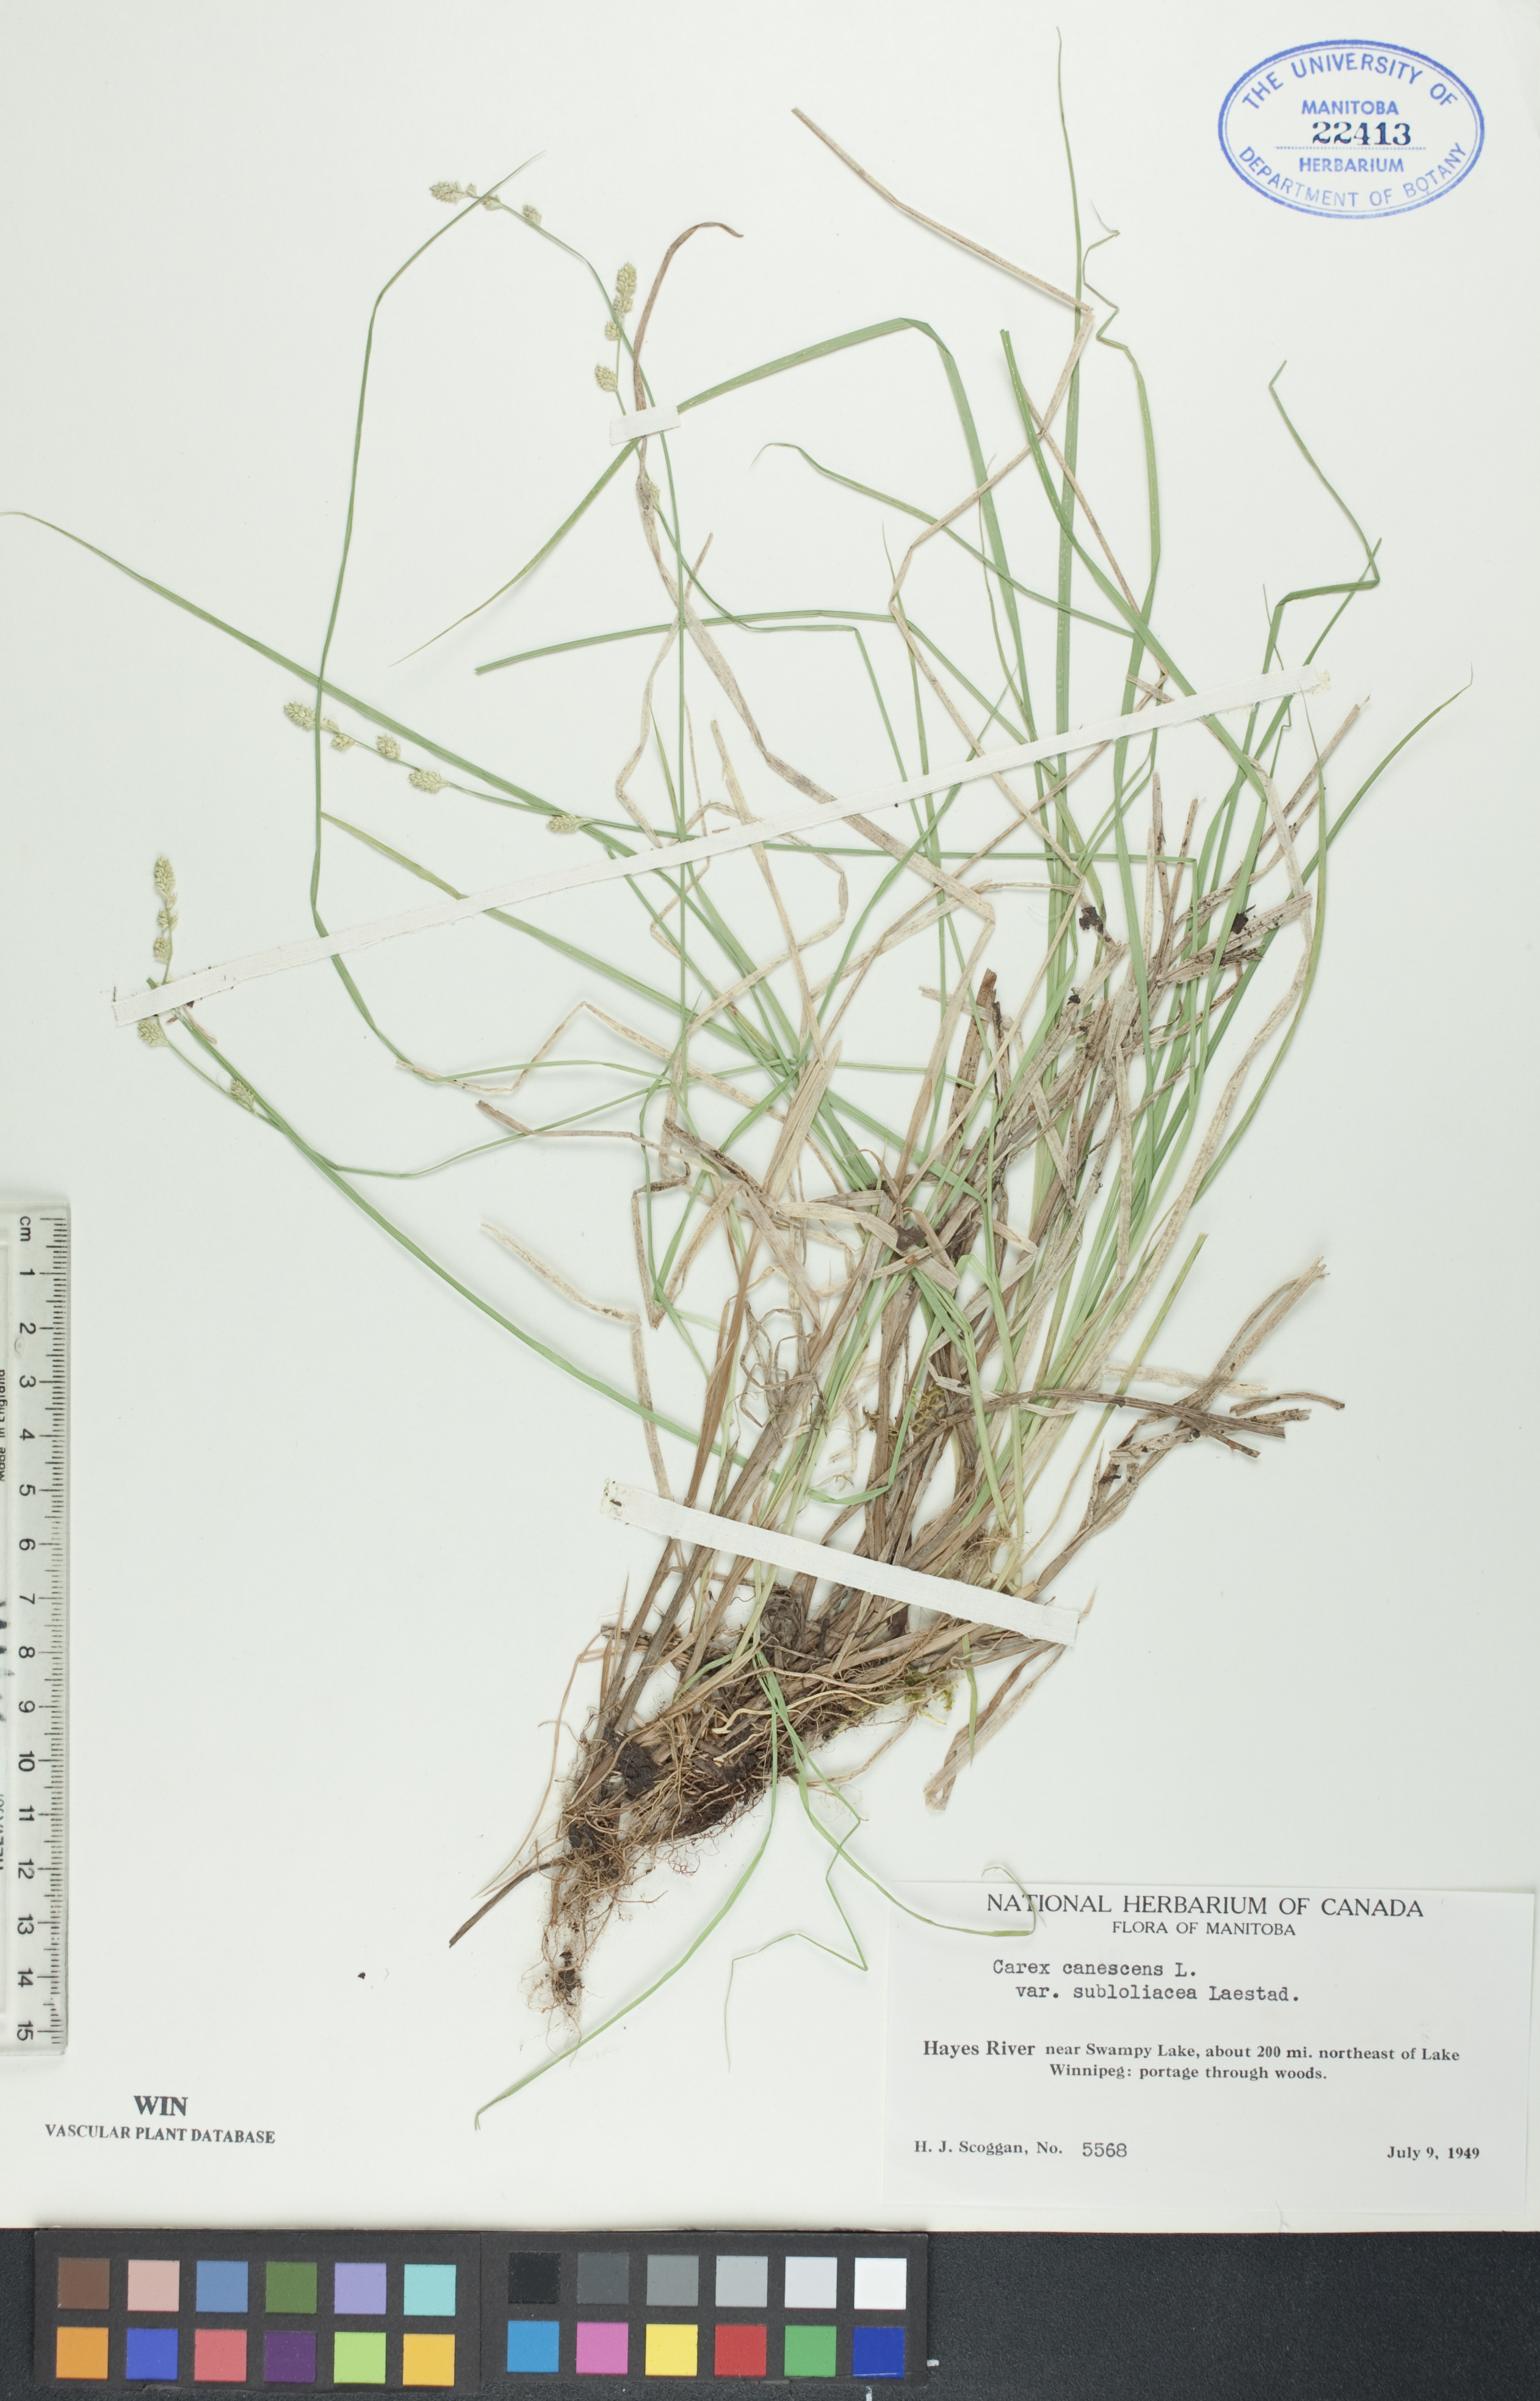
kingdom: Plantae
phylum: Tracheophyta
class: Liliopsida
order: Poales
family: Cyperaceae
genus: Carex
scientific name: Carex lapponica
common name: Lapland sedge
